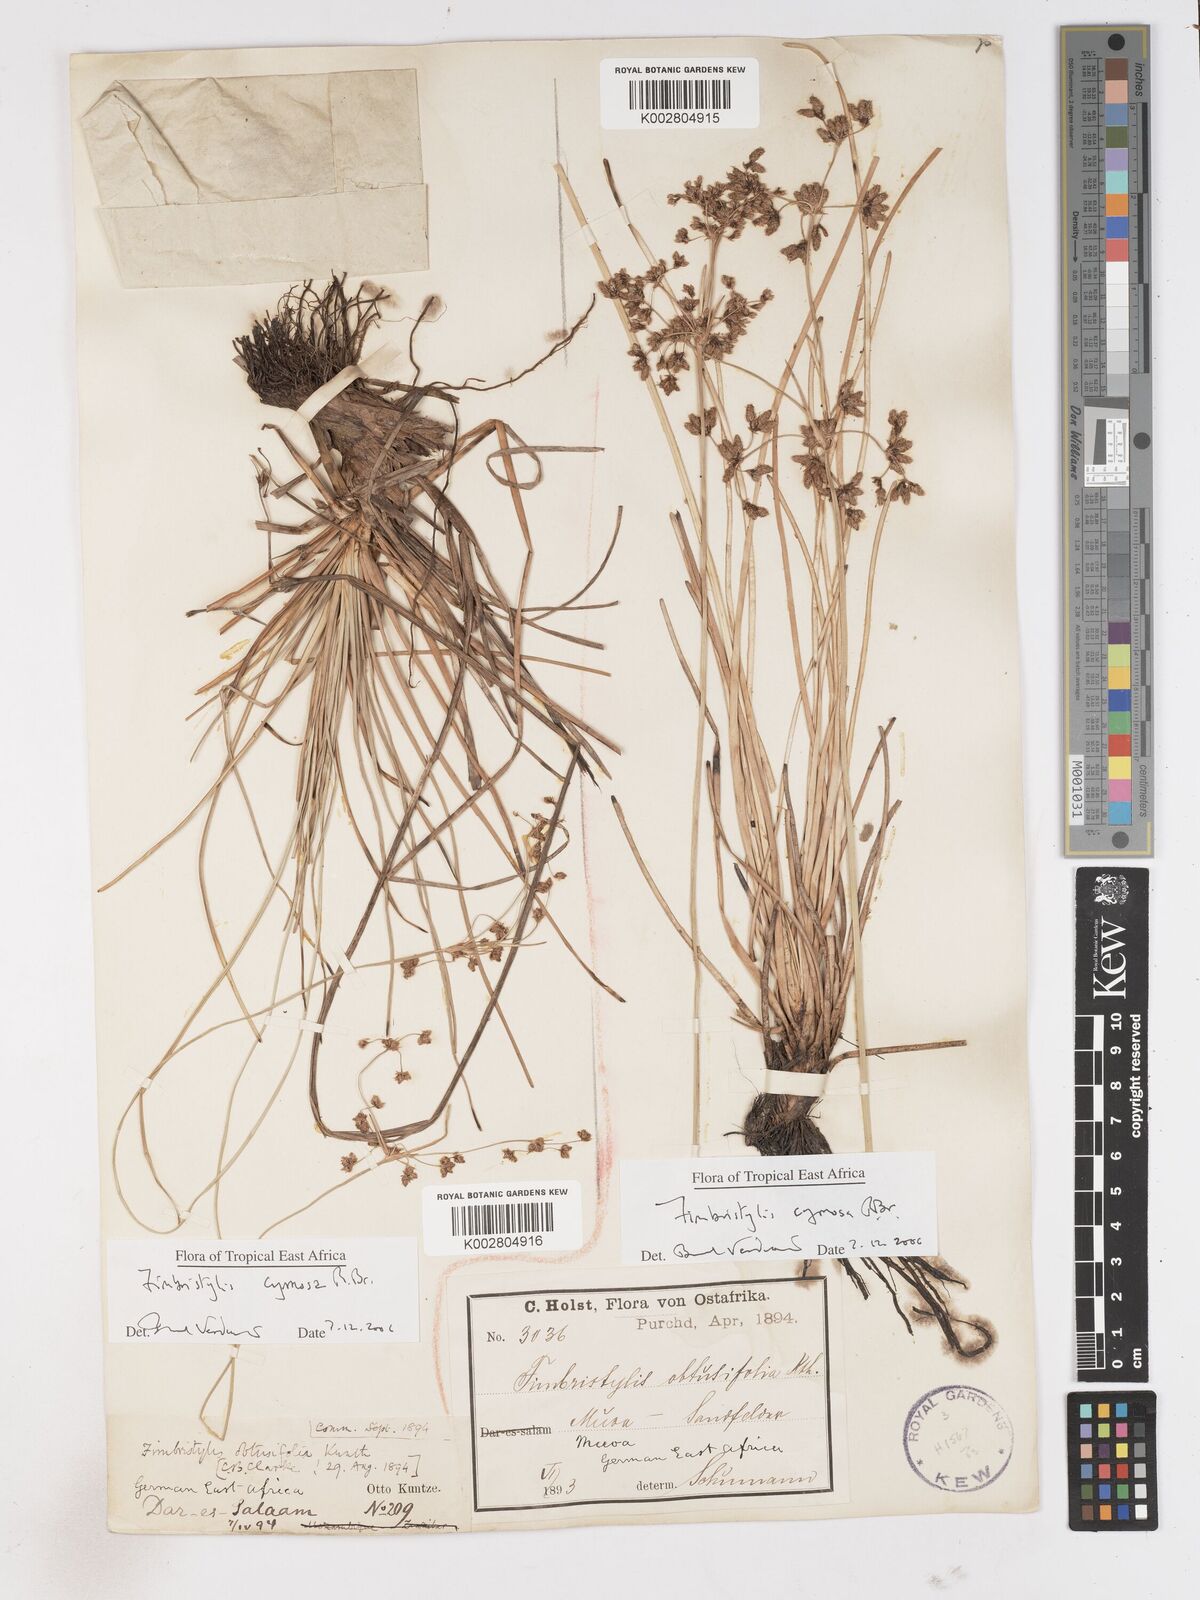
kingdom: Plantae
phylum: Tracheophyta
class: Liliopsida
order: Poales
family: Cyperaceae
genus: Fimbristylis
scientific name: Fimbristylis cymosa
